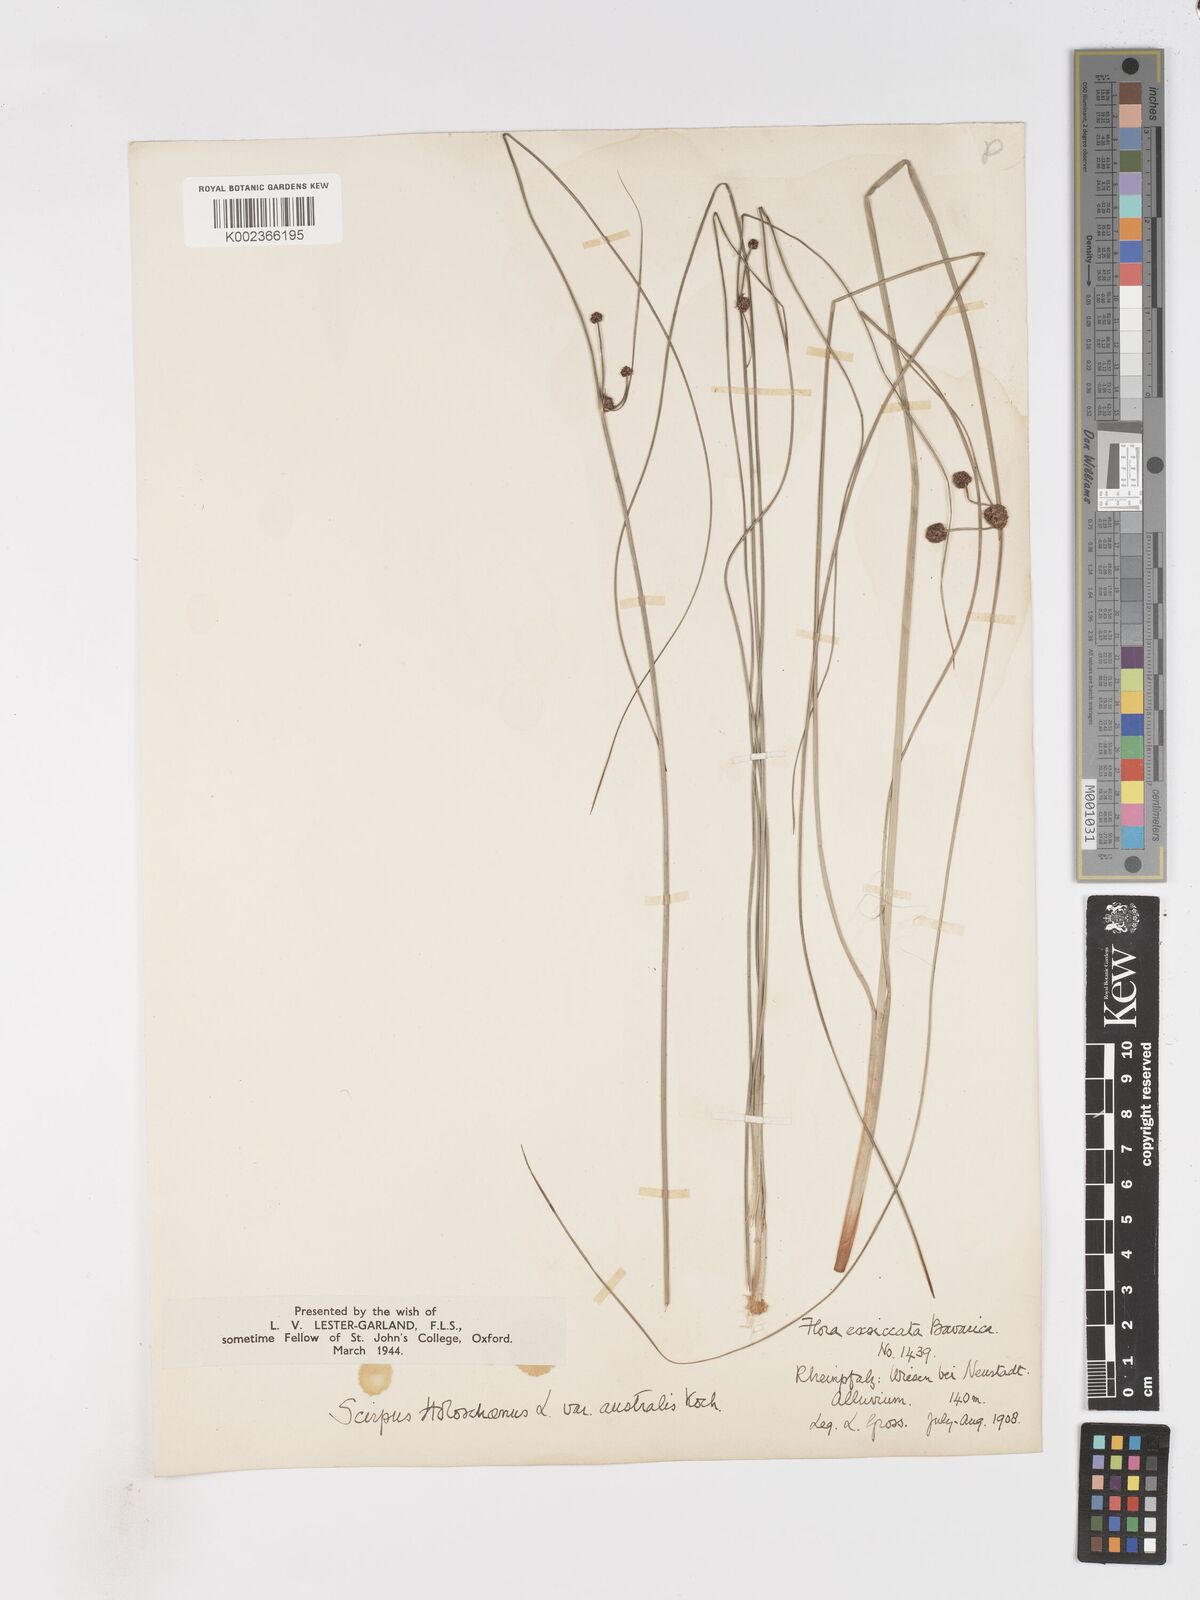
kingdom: Plantae
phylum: Tracheophyta
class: Liliopsida
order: Poales
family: Cyperaceae
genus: Scirpoides
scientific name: Scirpoides holoschoenus
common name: Round-headed club-rush
